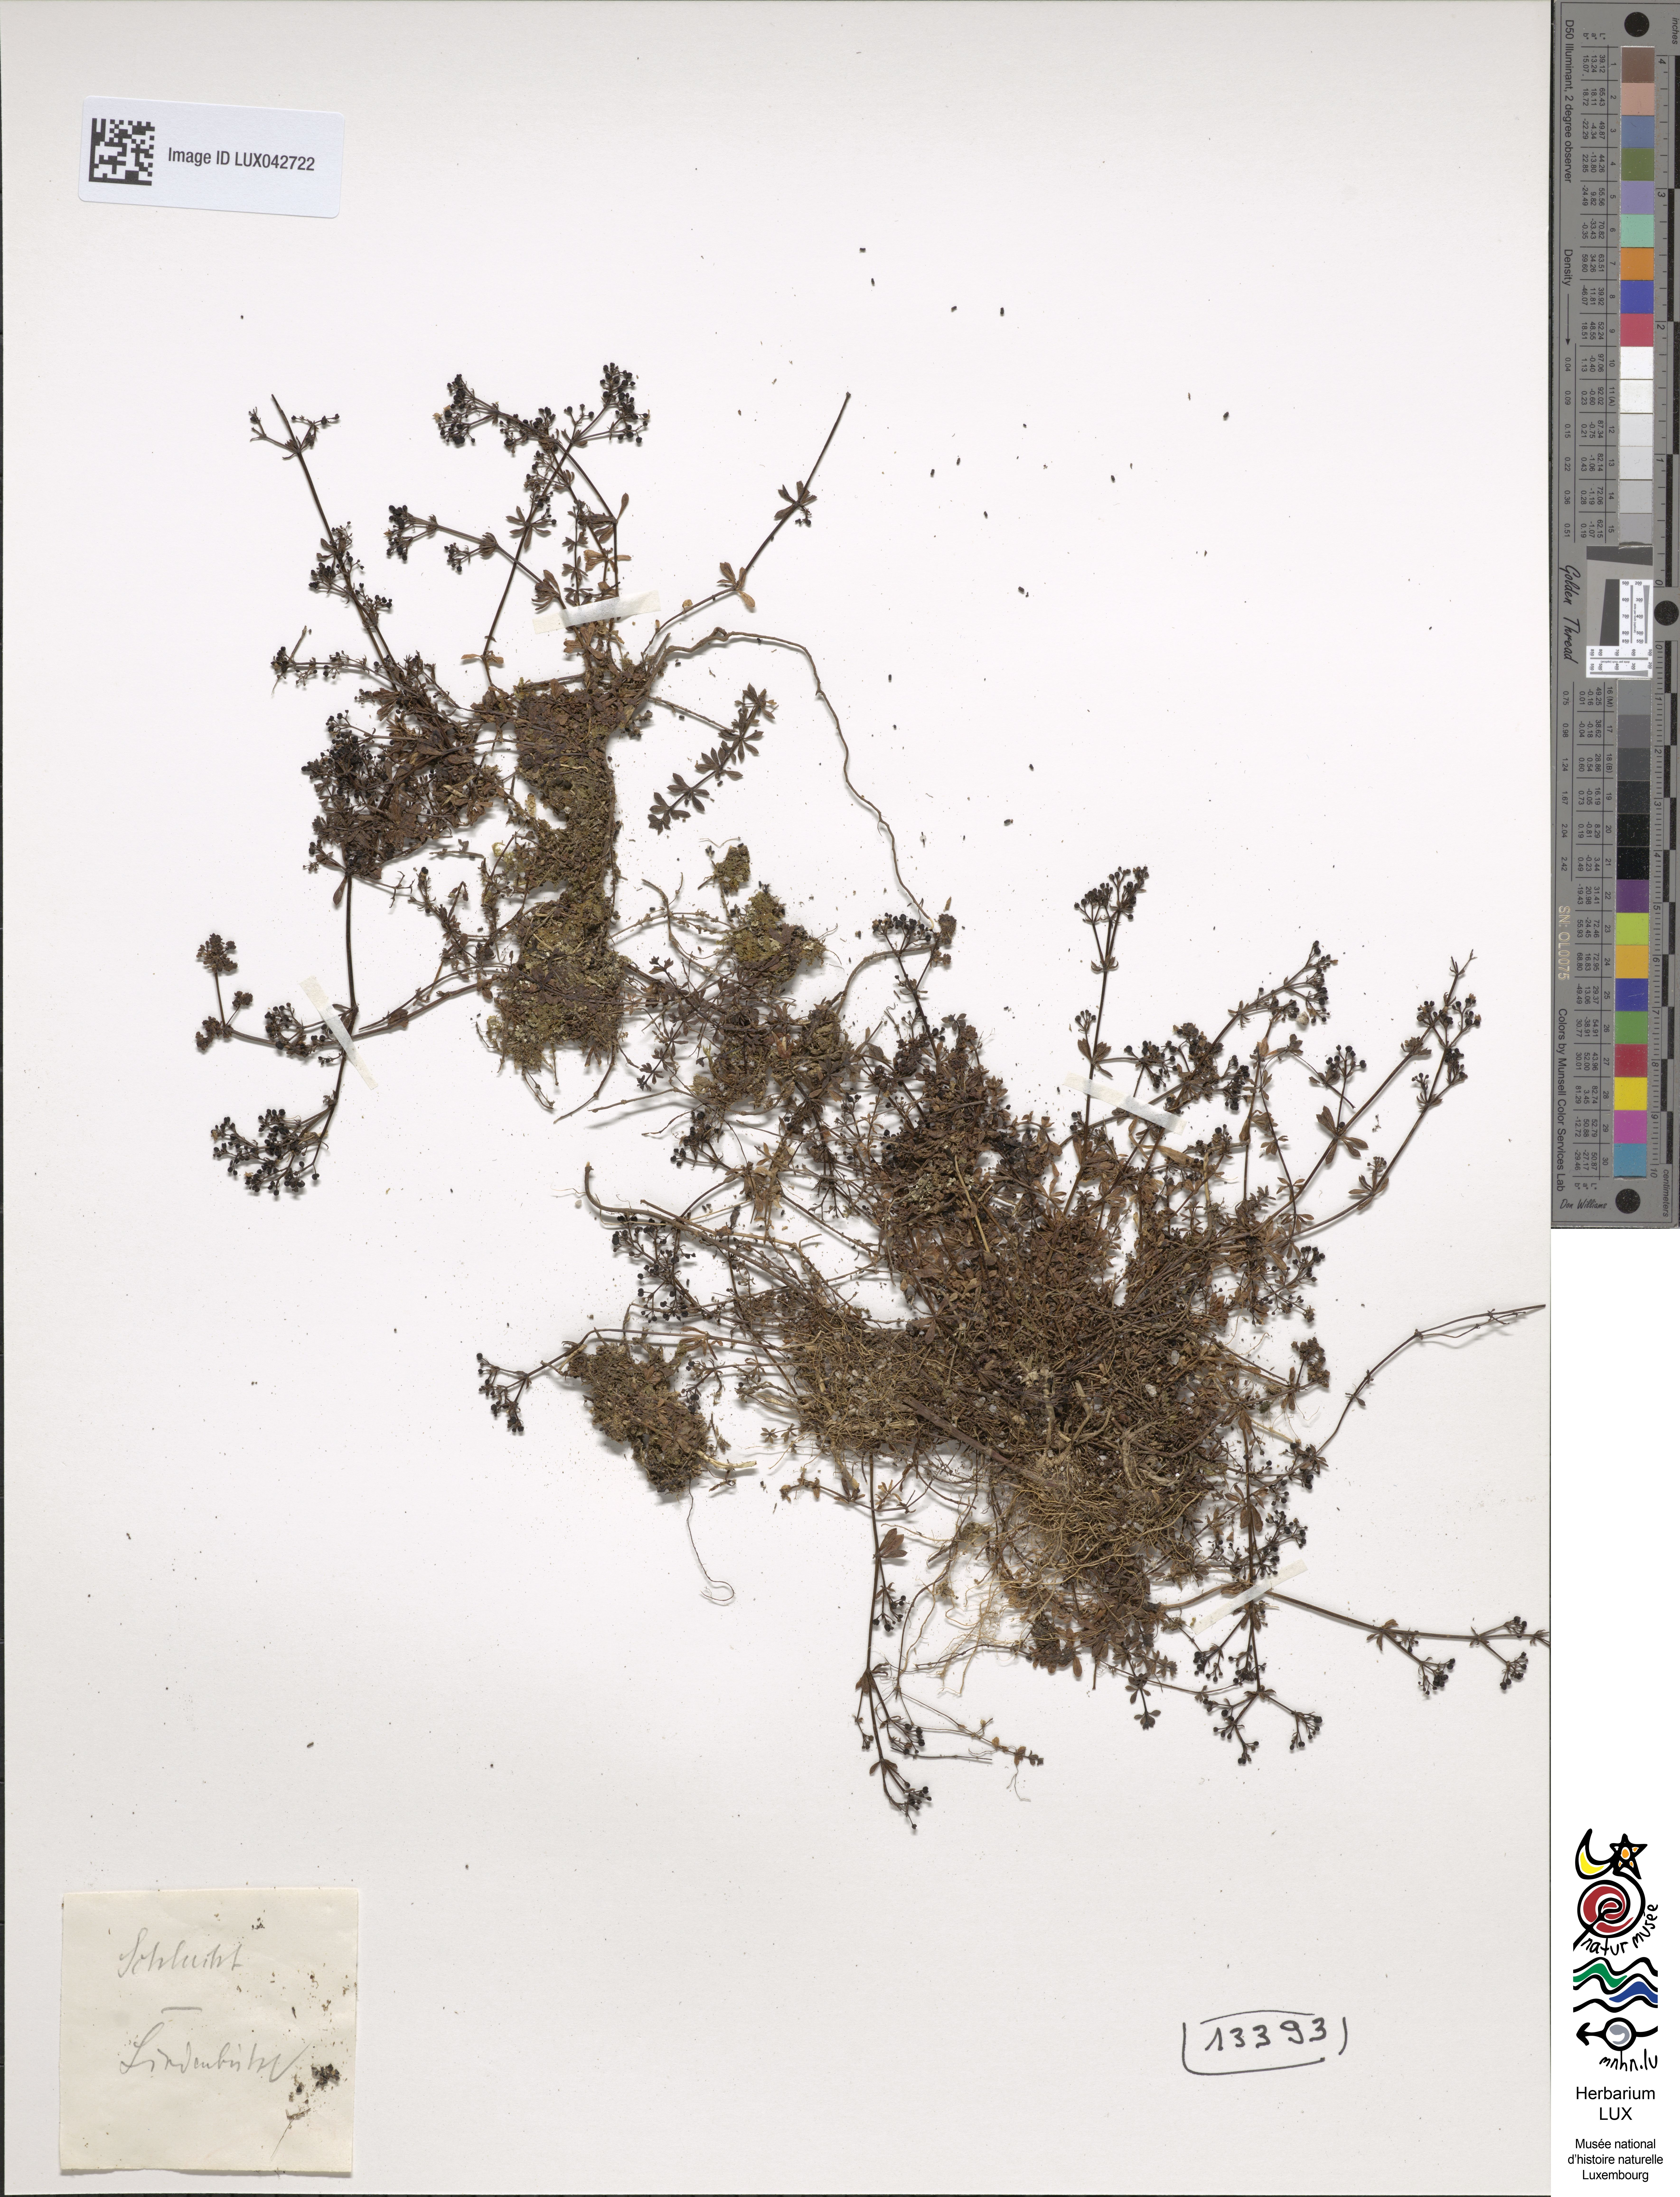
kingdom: Plantae
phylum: Tracheophyta
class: Magnoliopsida
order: Gentianales
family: Rubiaceae
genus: Galium
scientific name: Galium saxatile
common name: Heath bedstraw
